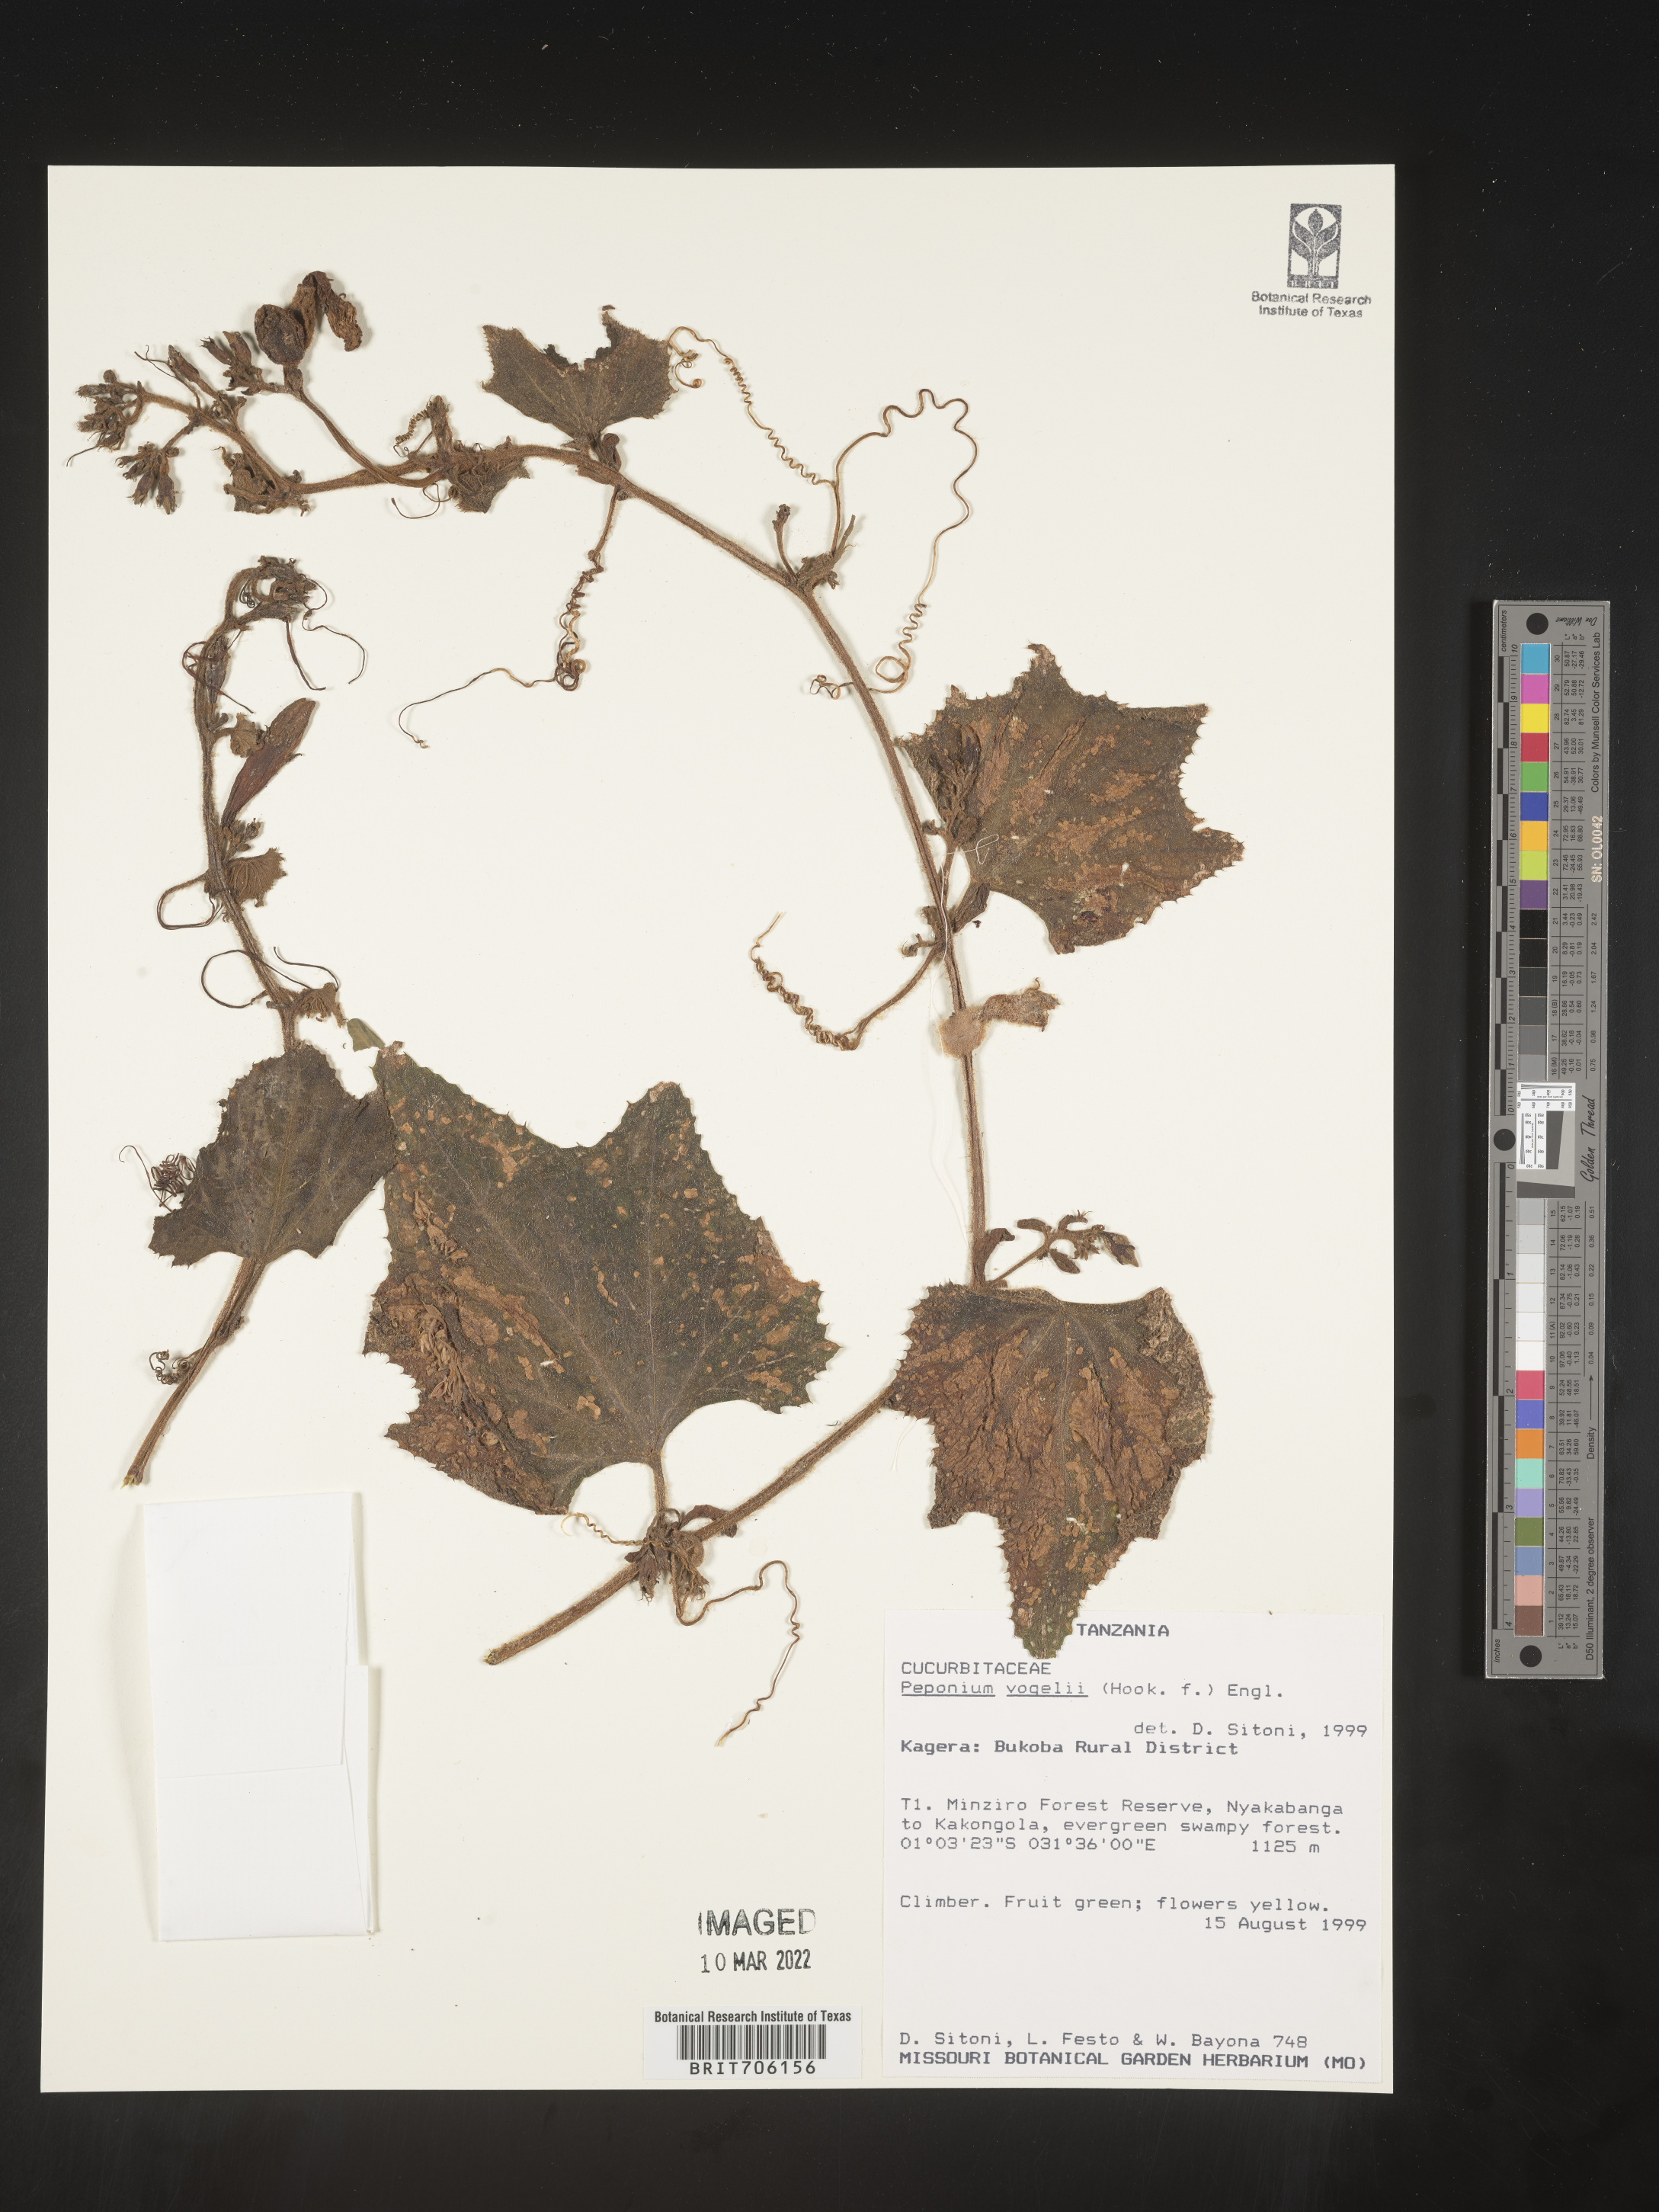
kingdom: Plantae
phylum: Tracheophyta
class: Magnoliopsida
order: Cucurbitales
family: Cucurbitaceae
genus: Peponium
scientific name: Peponium
